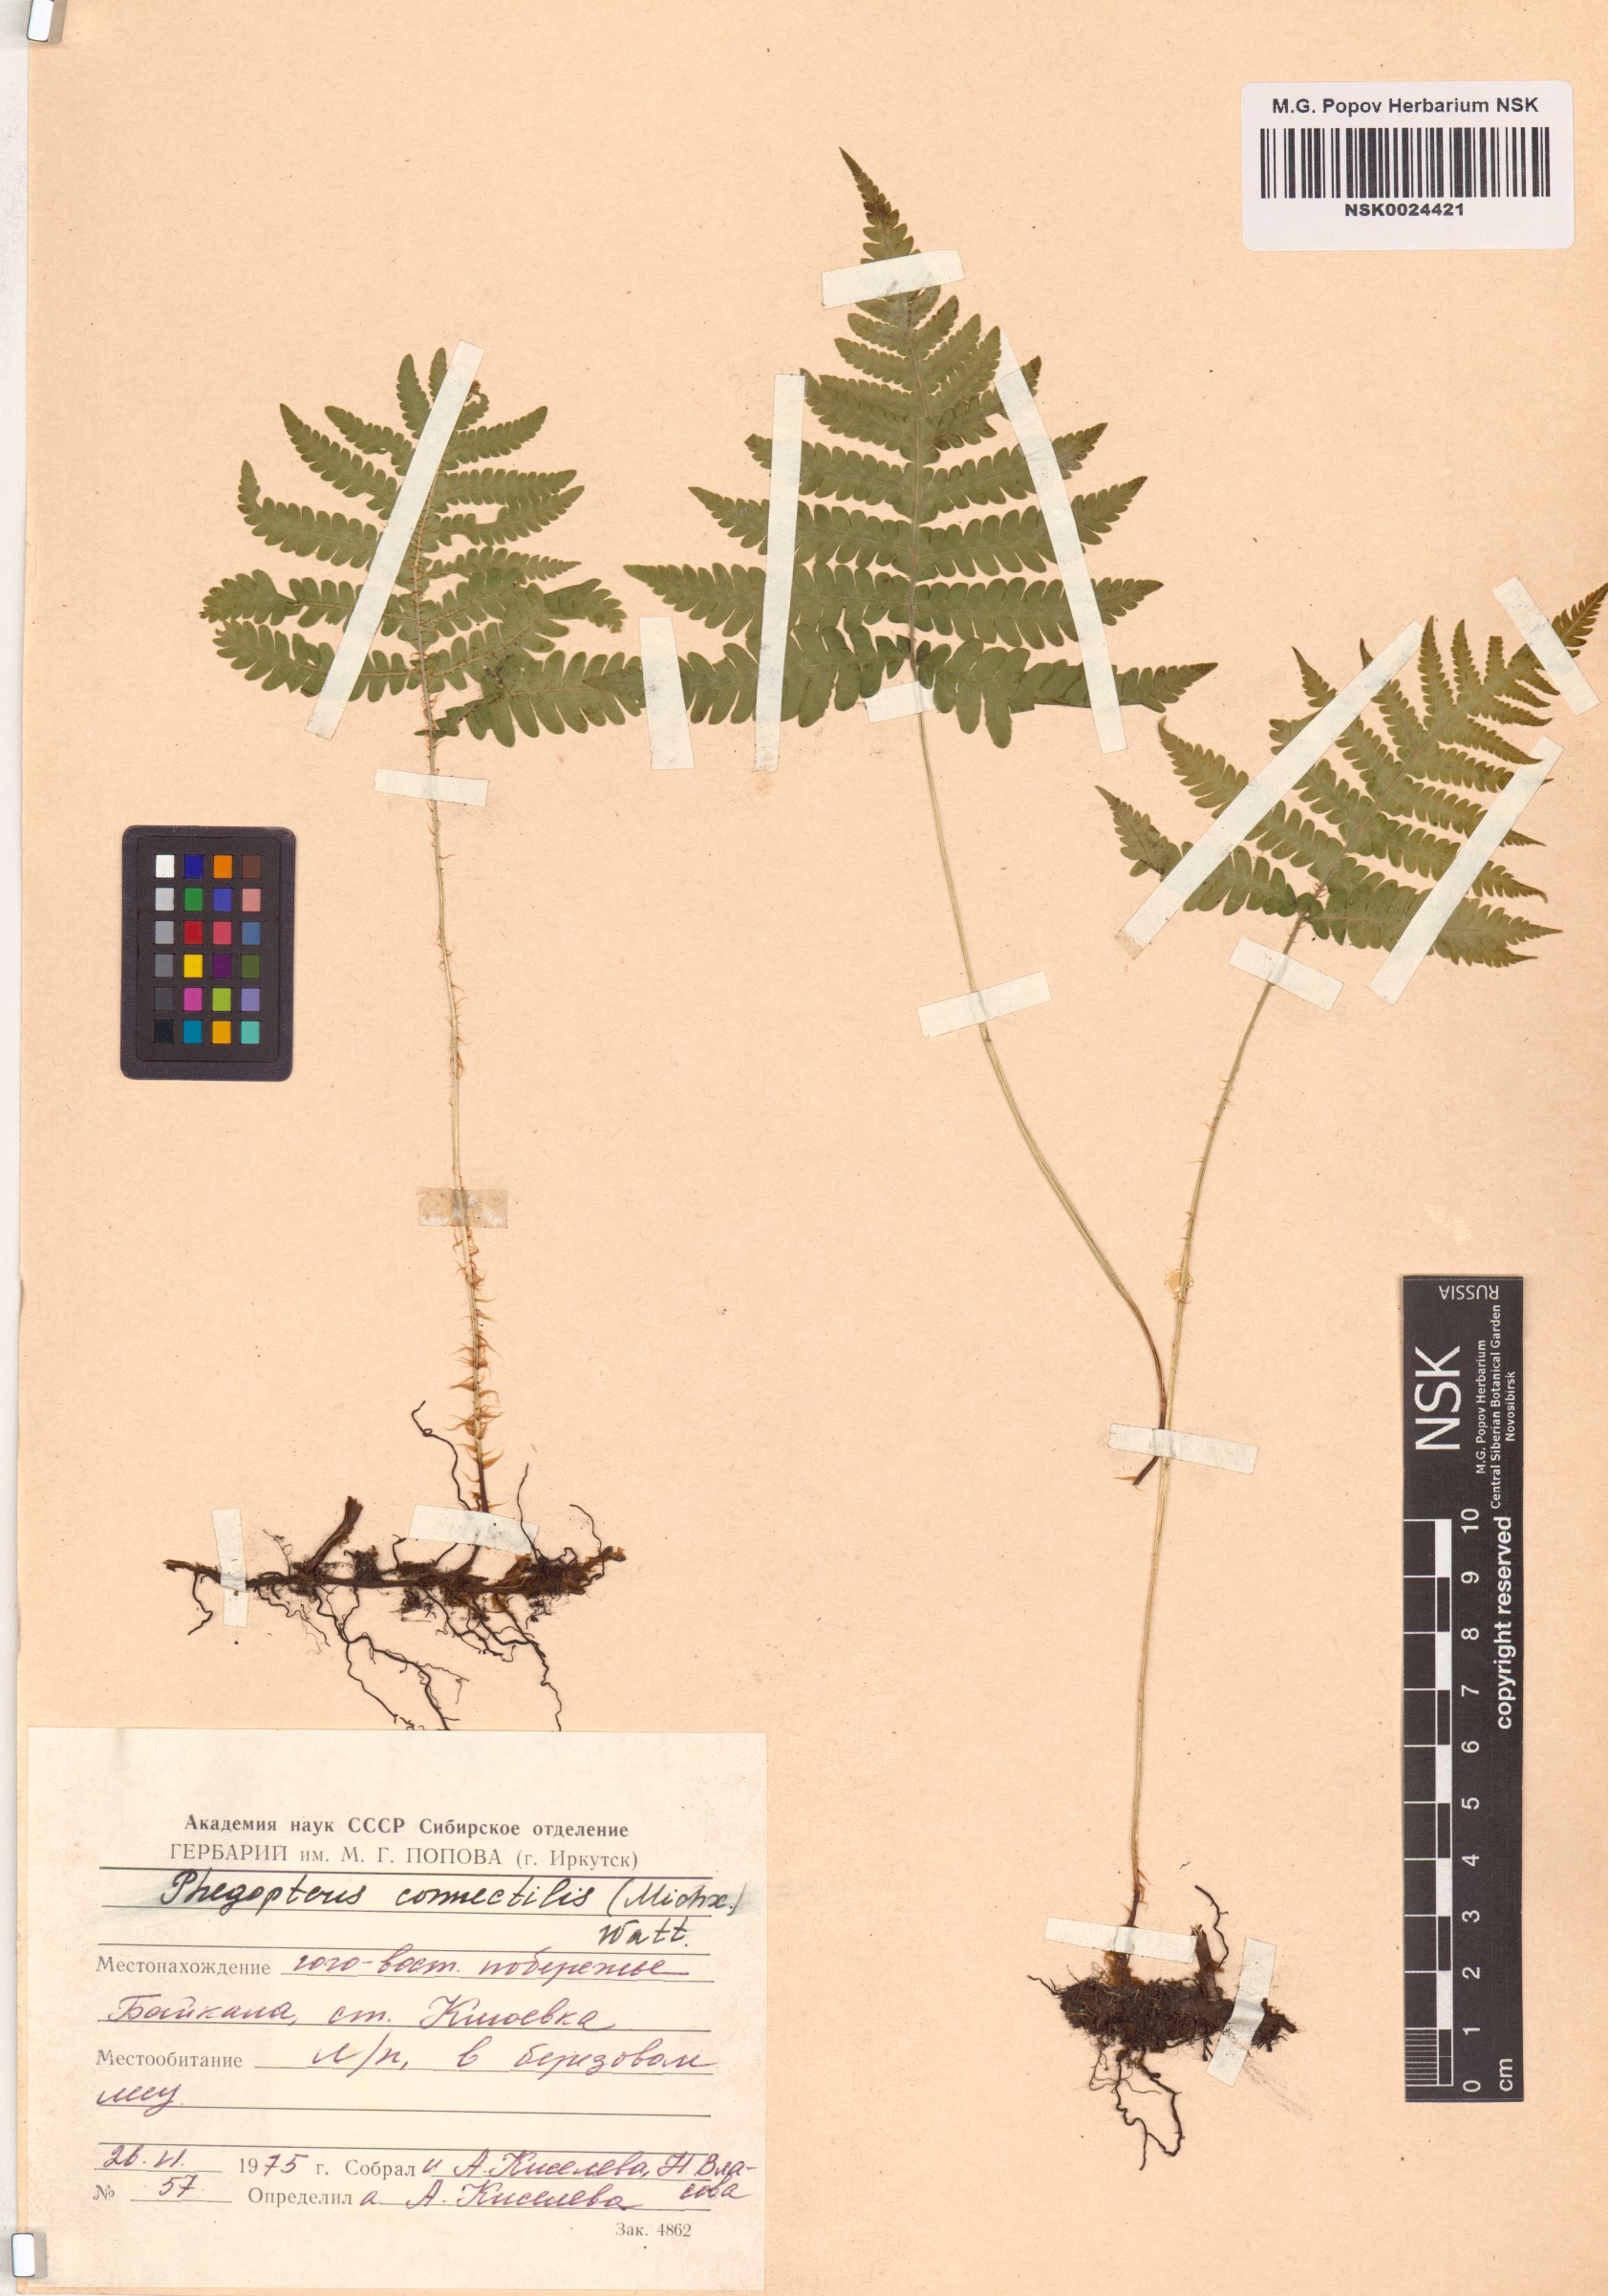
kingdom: Plantae
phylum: Tracheophyta
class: Polypodiopsida
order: Polypodiales
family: Thelypteridaceae
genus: Phegopteris
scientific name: Phegopteris connectilis
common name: Beech fern
